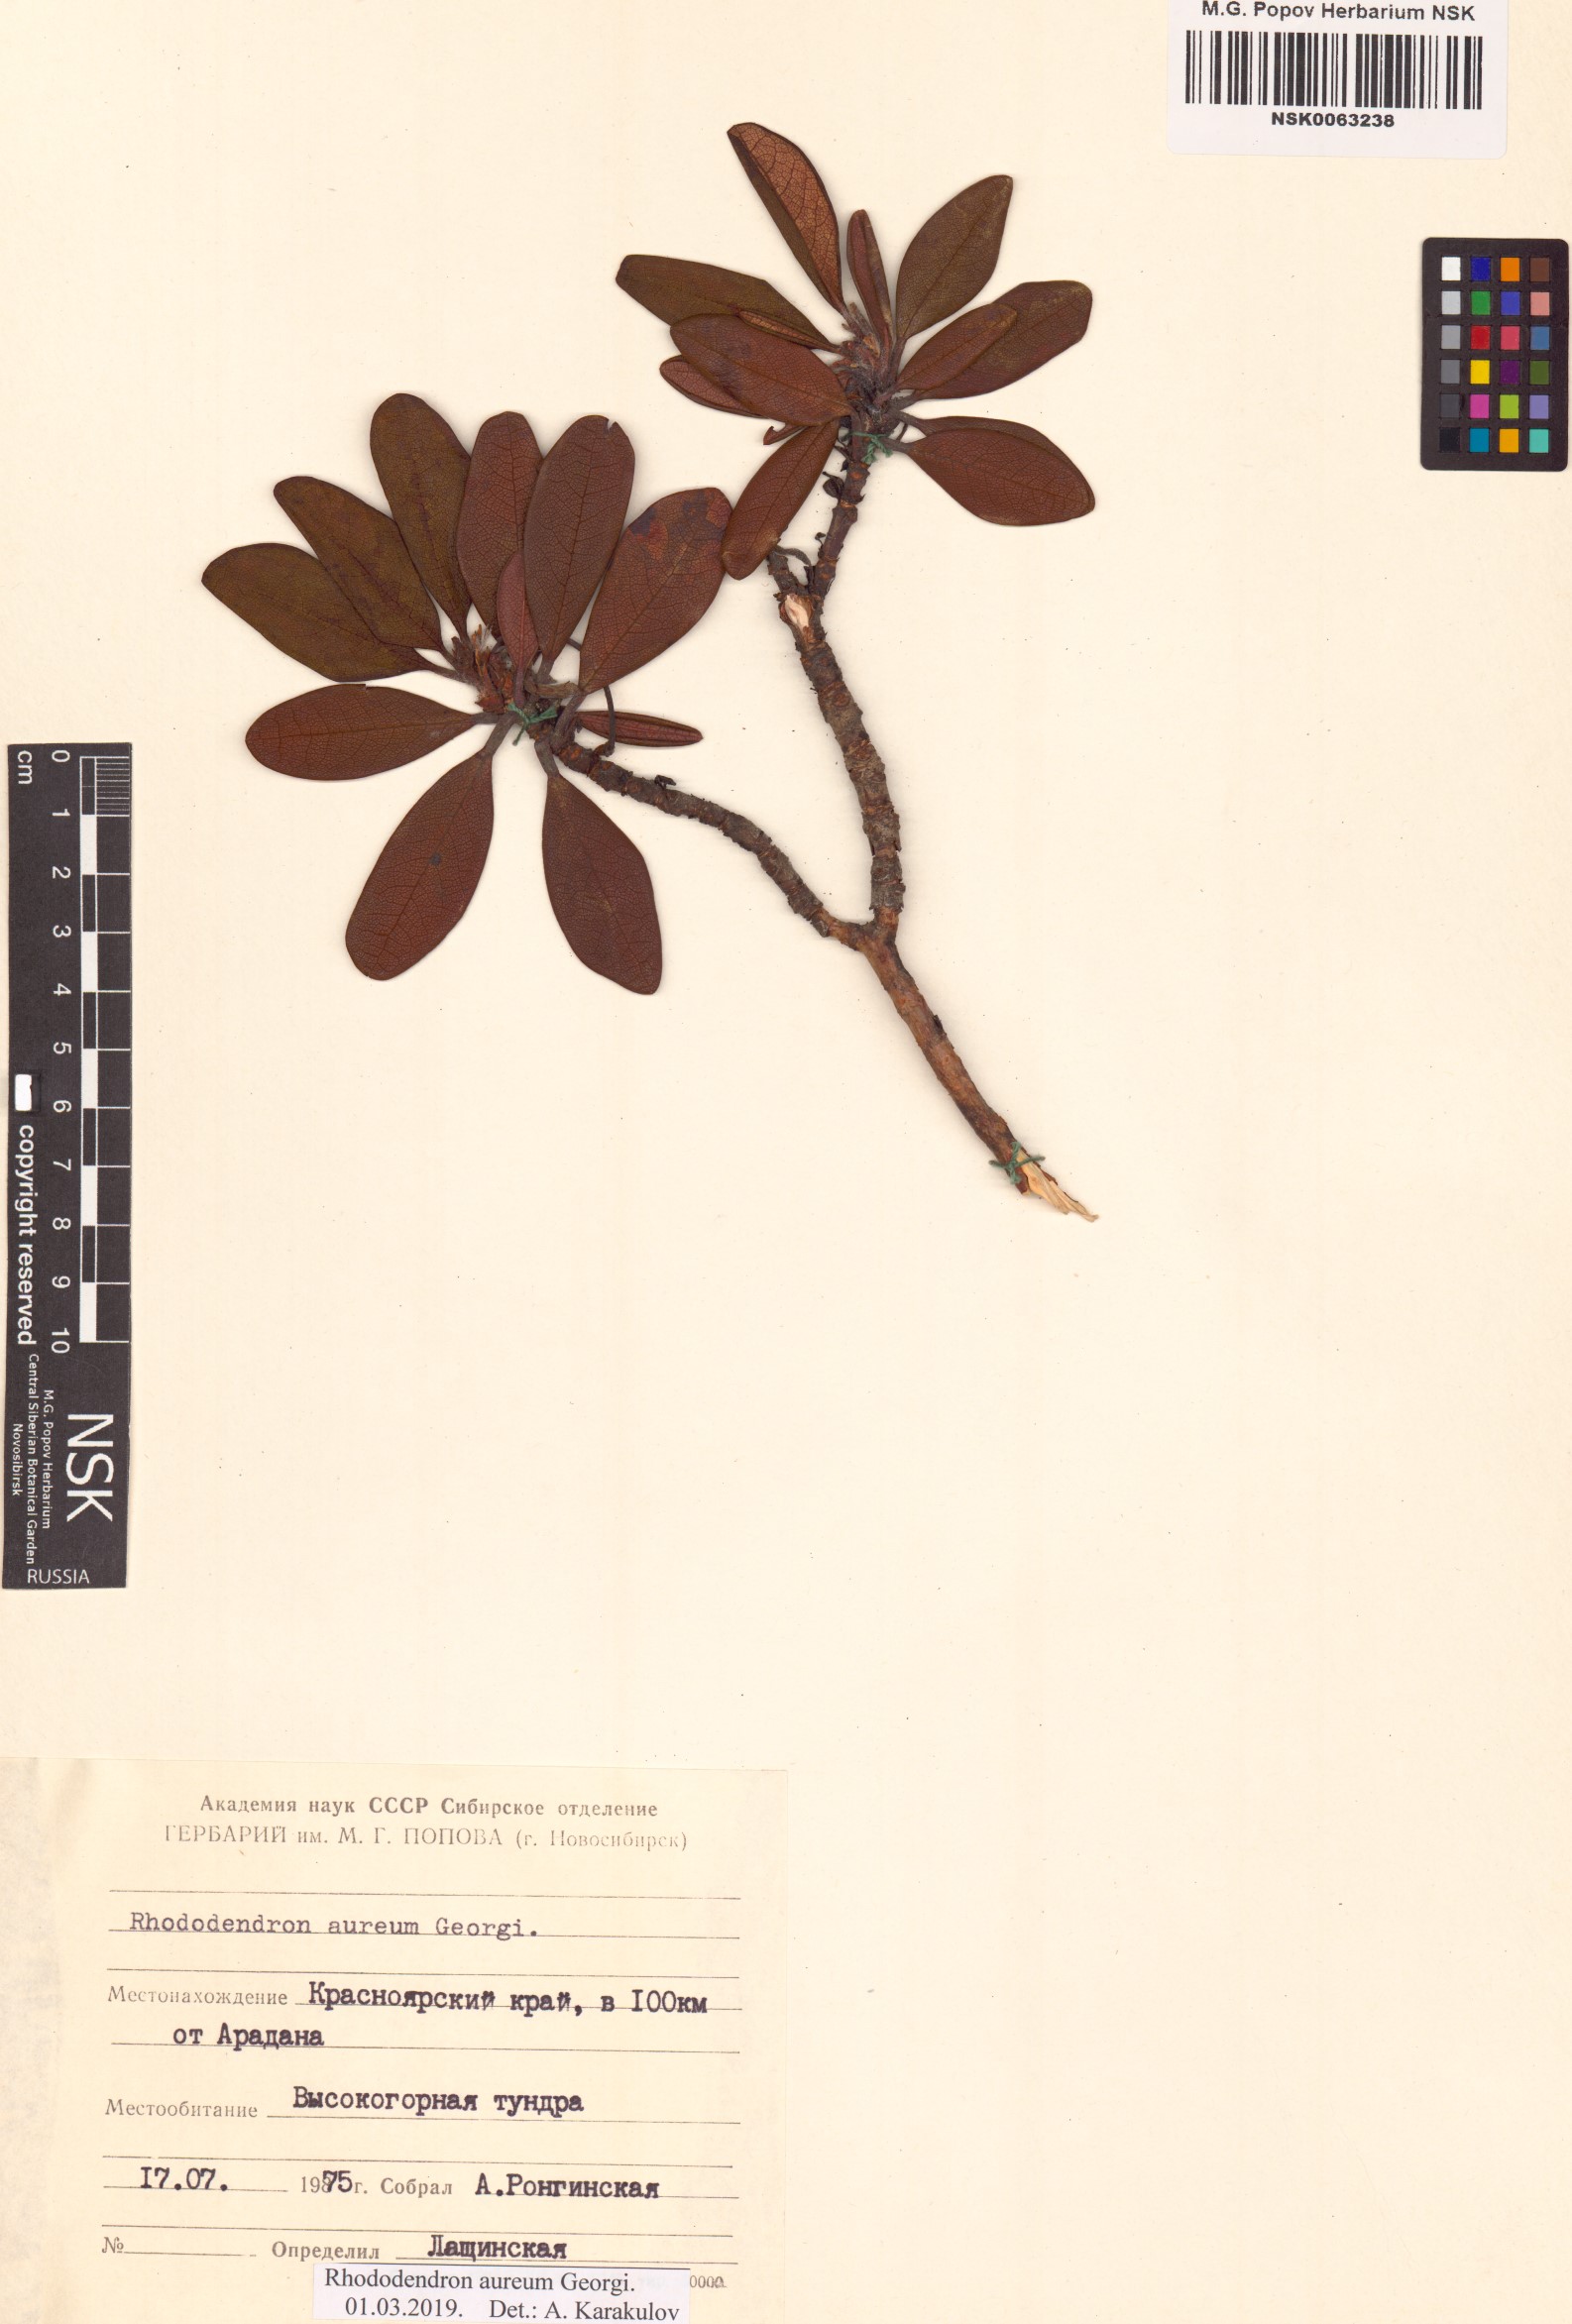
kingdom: Plantae
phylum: Tracheophyta
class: Magnoliopsida
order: Ericales
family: Ericaceae
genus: Rhododendron
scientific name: Rhododendron aureum
